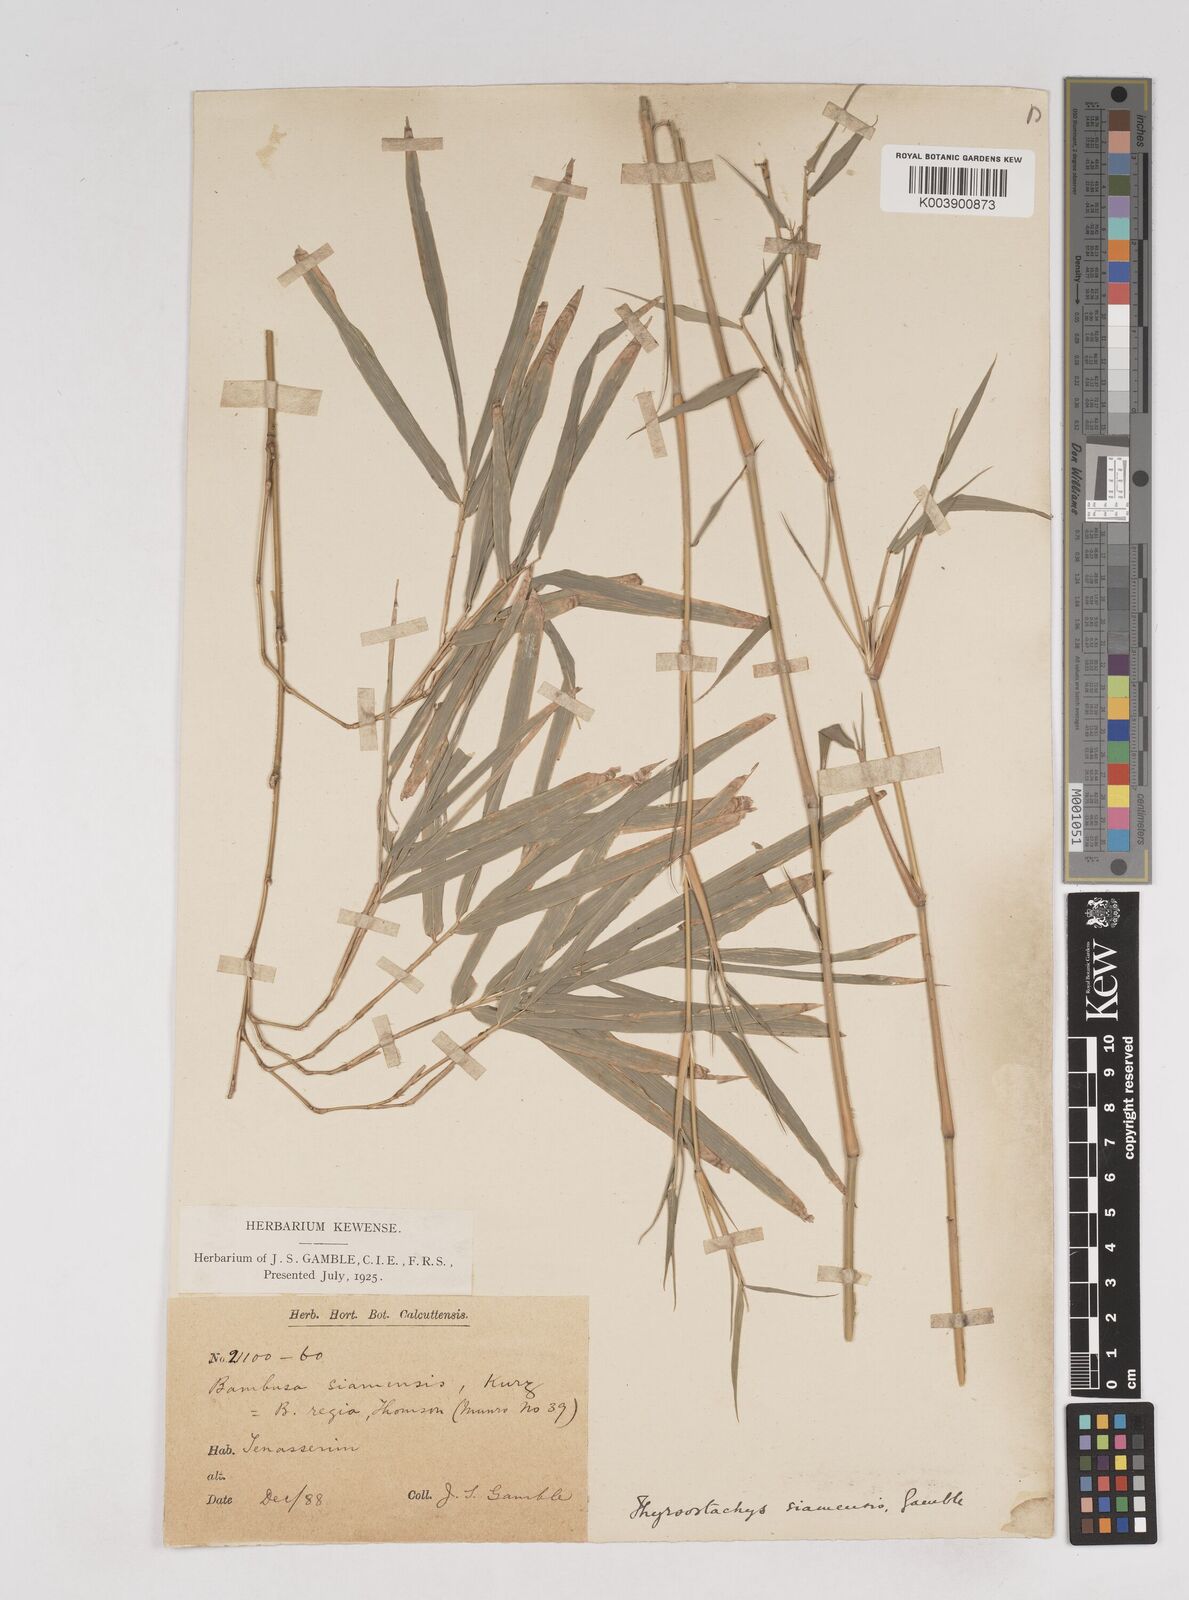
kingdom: Plantae
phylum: Tracheophyta
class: Liliopsida
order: Poales
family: Poaceae
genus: Thyrsostachys
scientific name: Thyrsostachys siamensis
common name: Thailand bamboo
